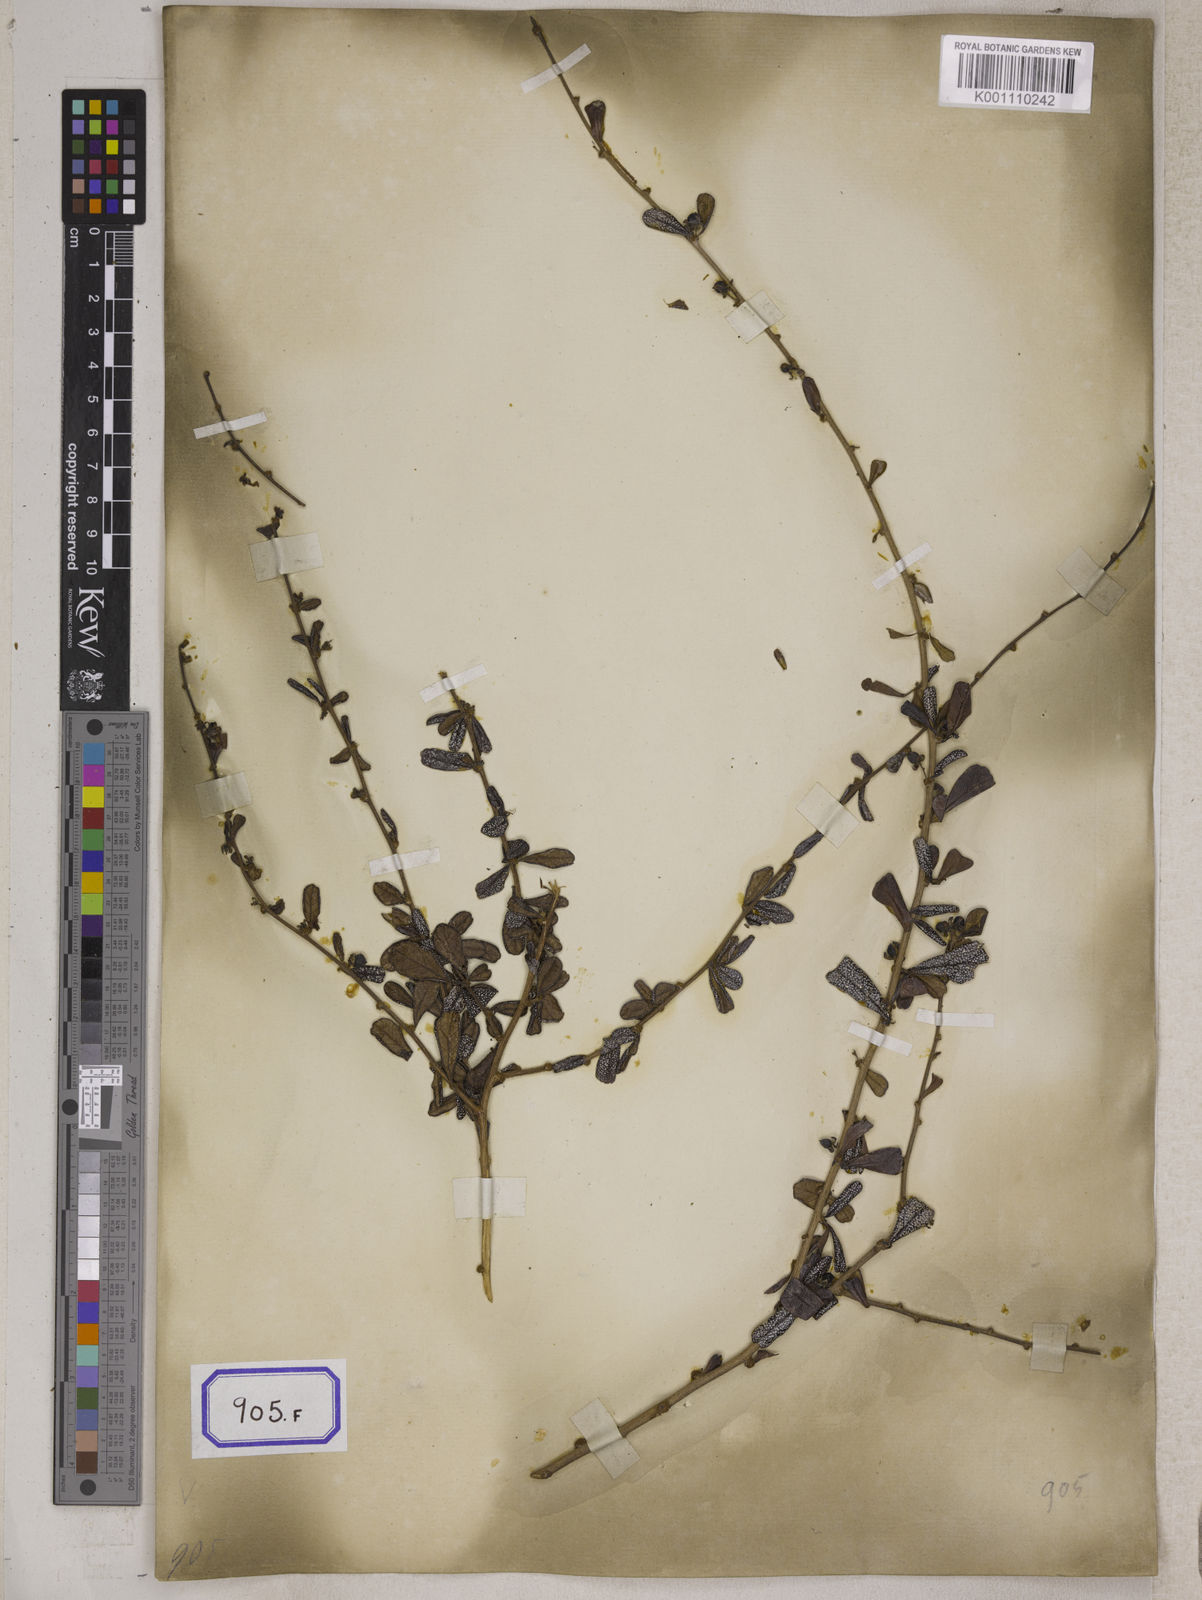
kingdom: Plantae
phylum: Tracheophyta
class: Magnoliopsida
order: Boraginales
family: Ehretiaceae
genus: Ehretia
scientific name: Ehretia microphylla
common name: Fukien-tea
